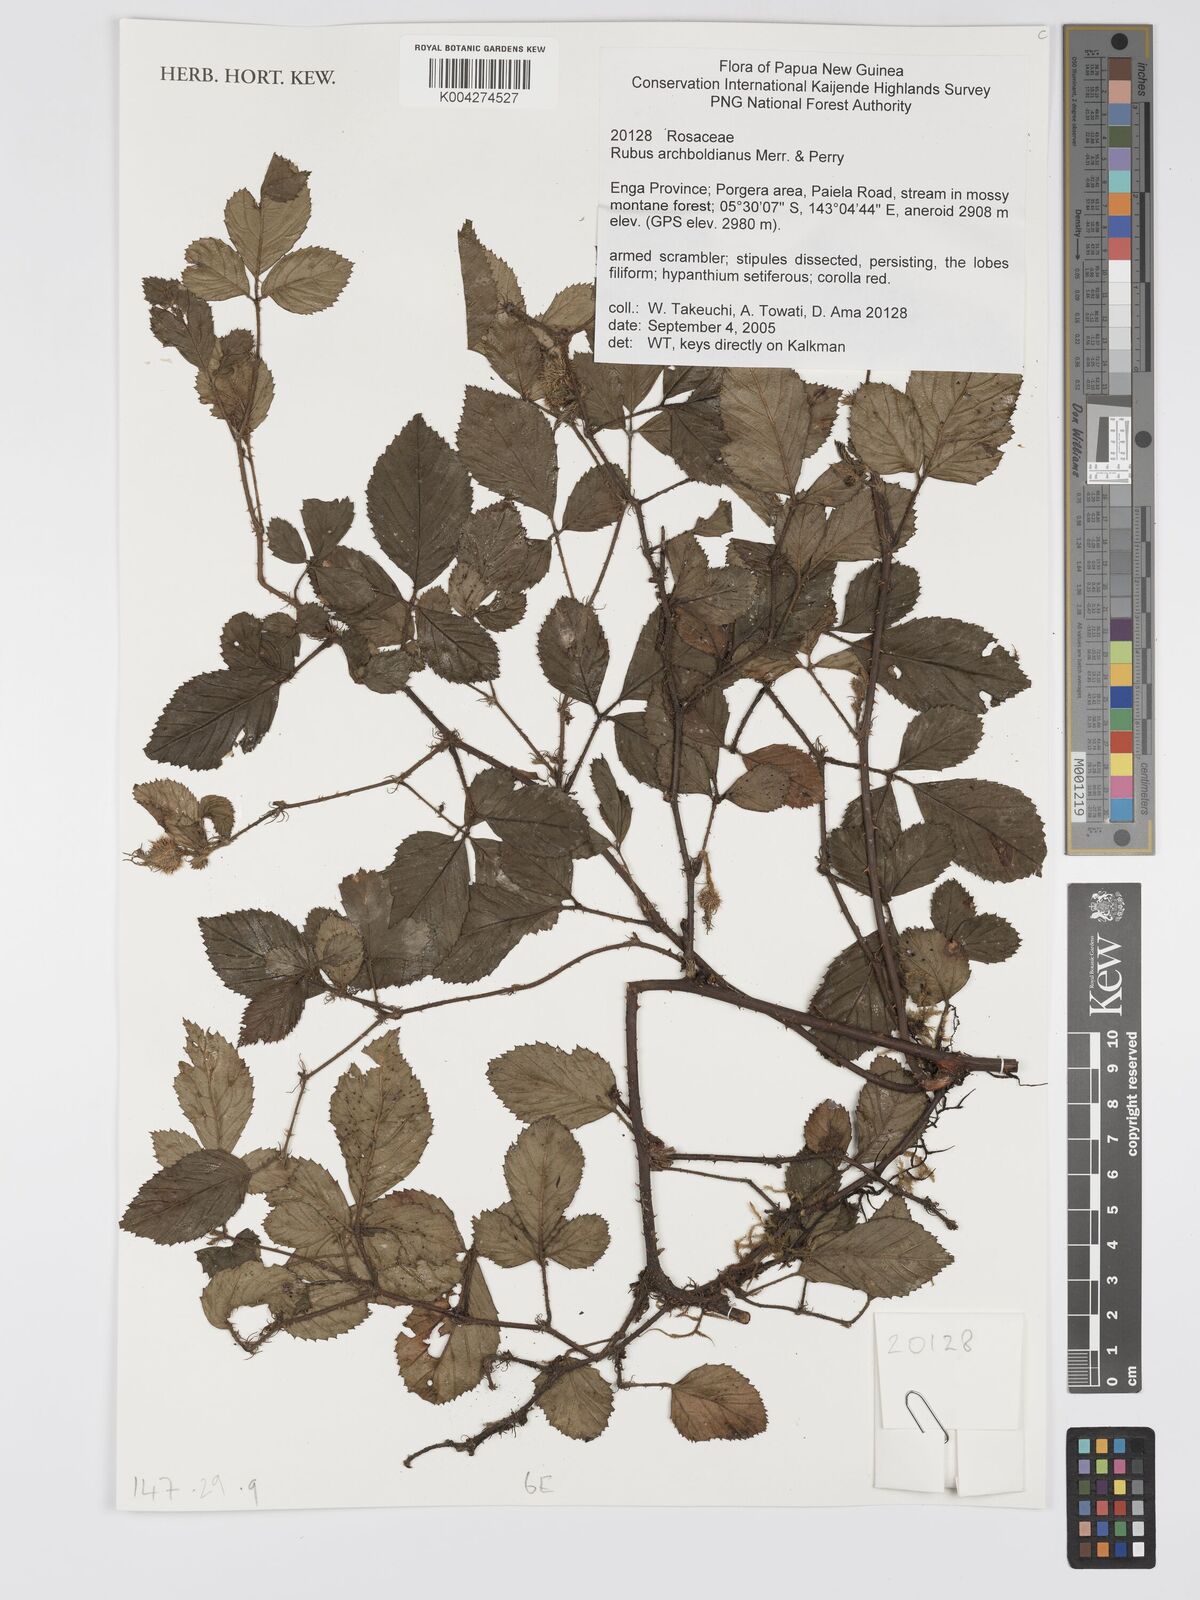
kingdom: Plantae
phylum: Tracheophyta
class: Magnoliopsida
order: Rosales
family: Rosaceae
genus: Rubus
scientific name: Rubus archboldianus
